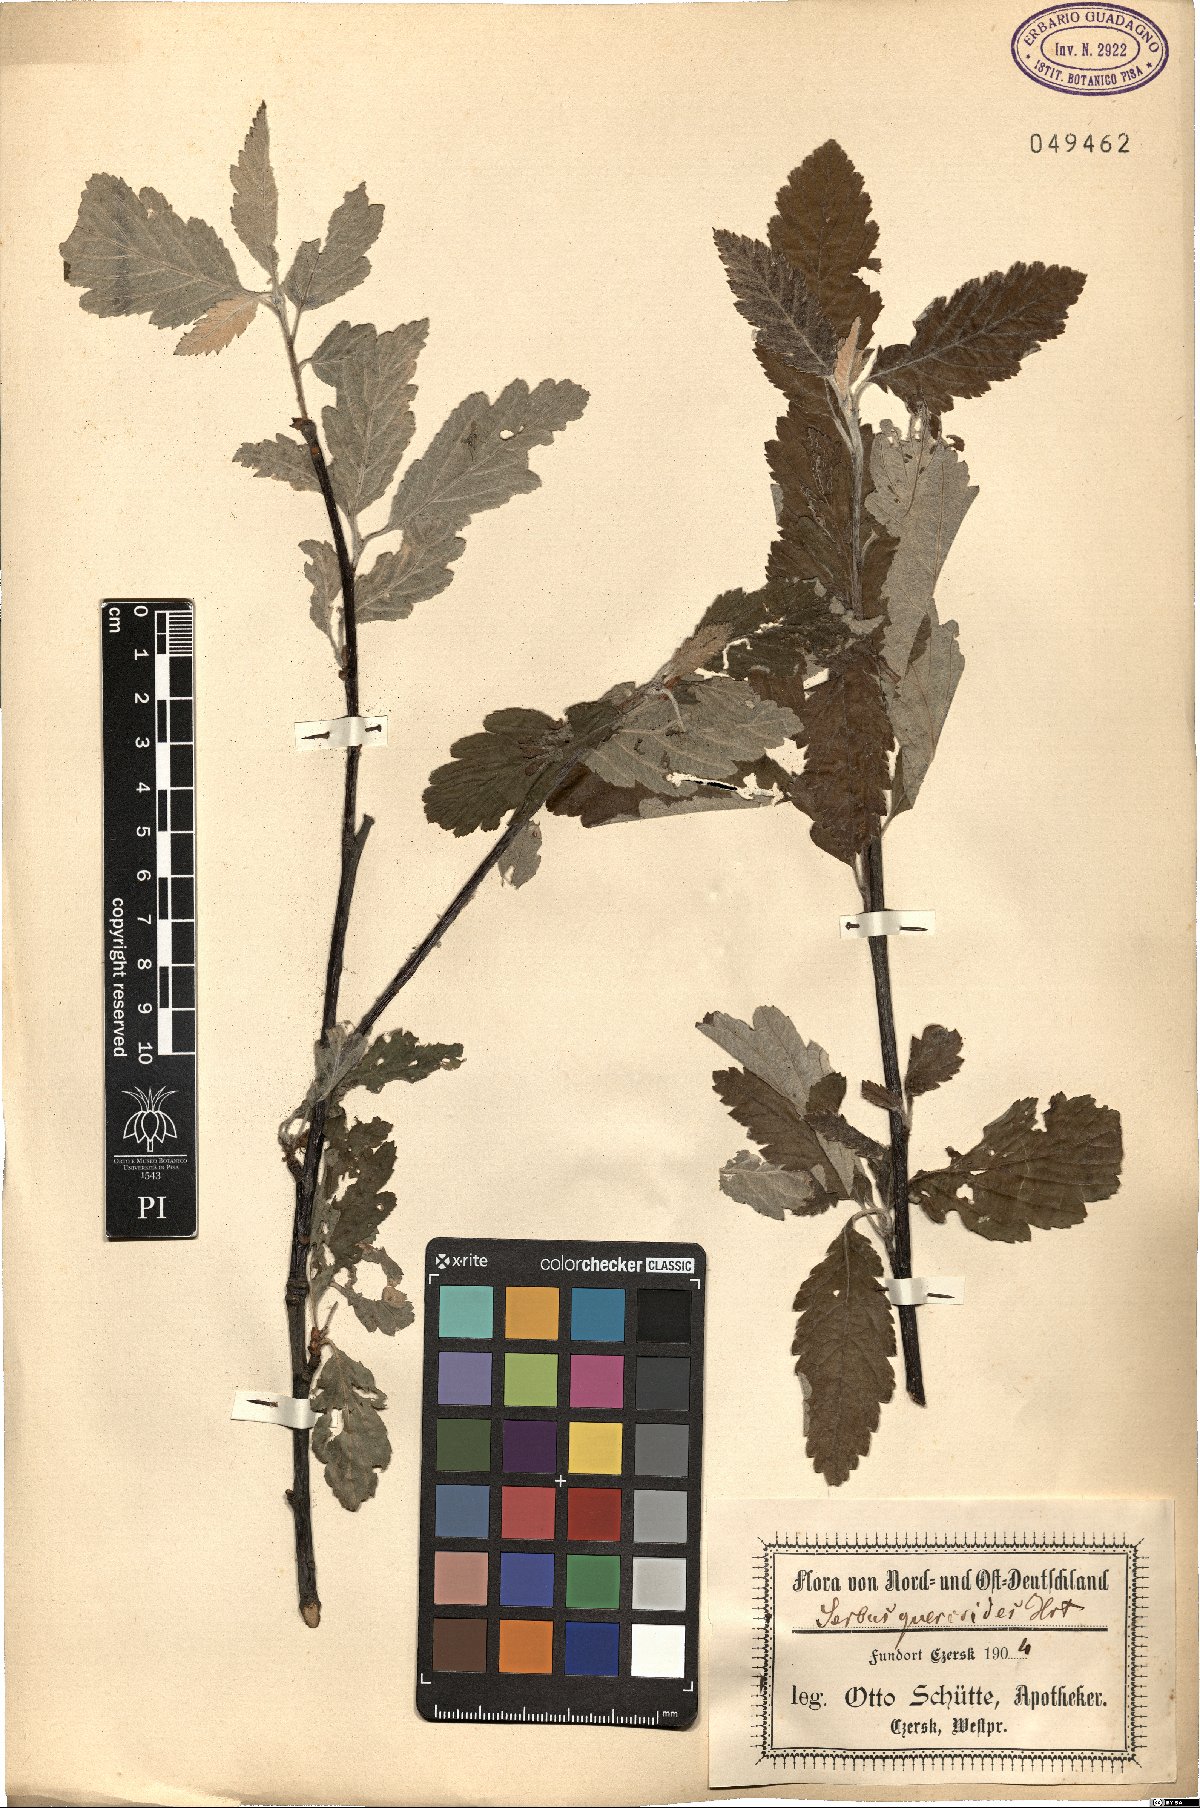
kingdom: Plantae
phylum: Tracheophyta
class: Magnoliopsida
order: Rosales
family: Rosaceae
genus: Sorbaria
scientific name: Sorbaria sorbifolia
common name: False spiraea
